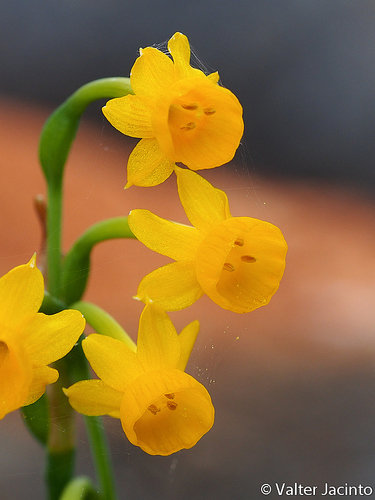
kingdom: Plantae
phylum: Tracheophyta
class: Liliopsida
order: Asparagales
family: Amaryllidaceae
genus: Narcissus
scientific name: Narcissus gaditanus
